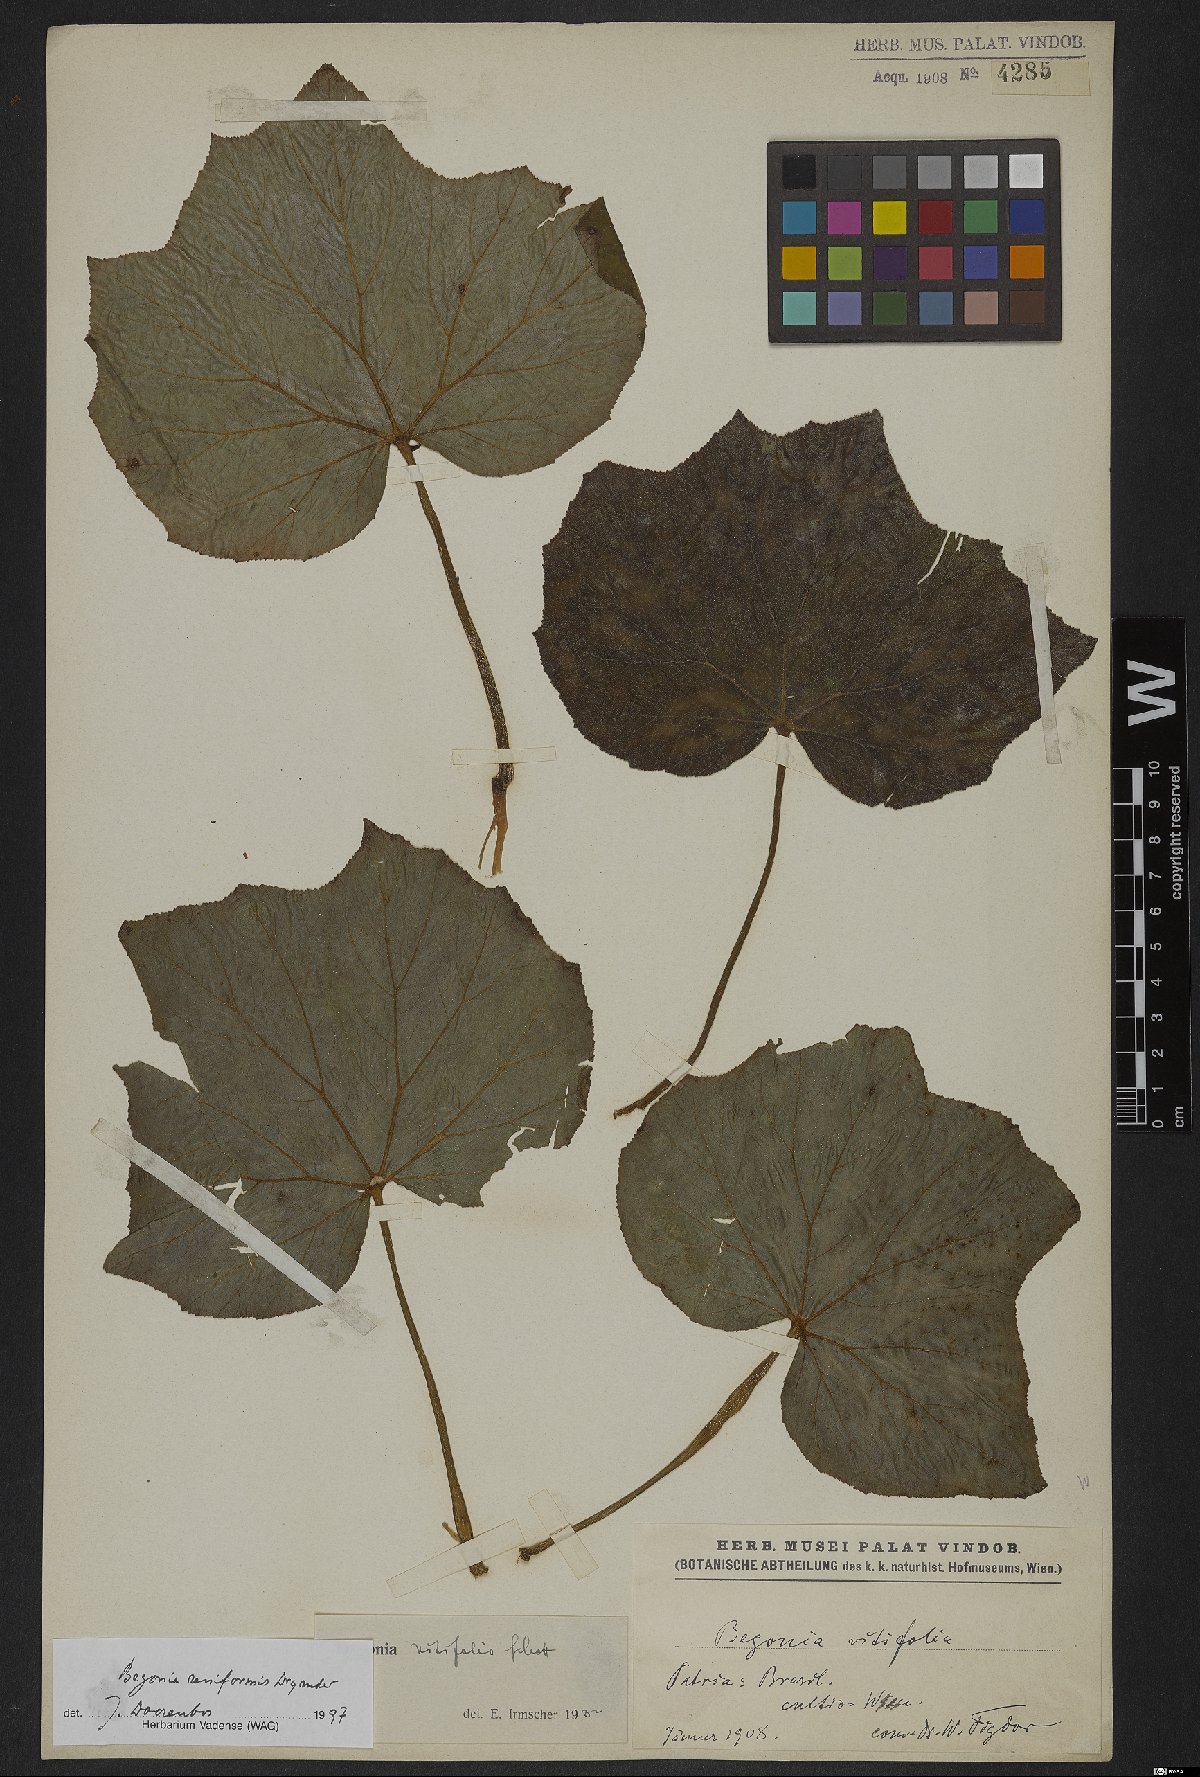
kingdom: Plantae
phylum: Tracheophyta
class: Magnoliopsida
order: Cucurbitales
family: Begoniaceae
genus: Begonia
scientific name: Begonia reniformis
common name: Grapeleaf begonia
